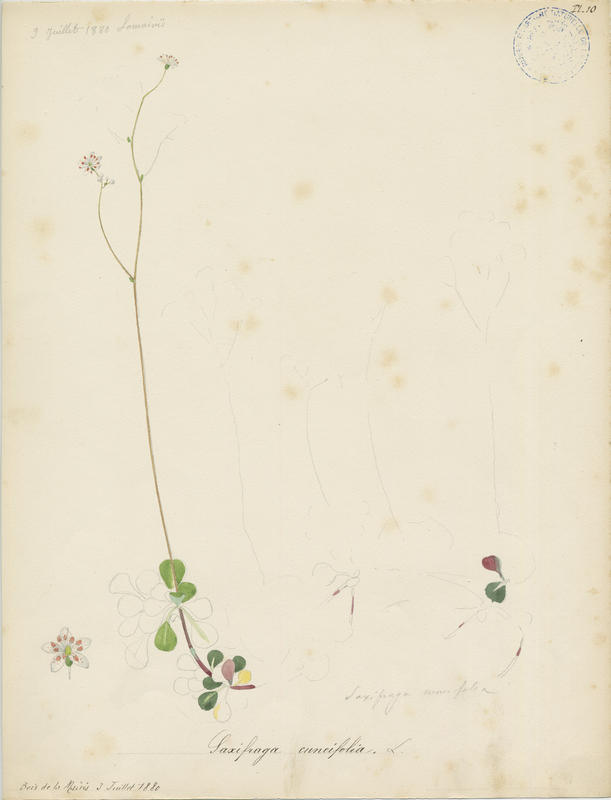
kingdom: Plantae
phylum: Tracheophyta
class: Magnoliopsida
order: Saxifragales
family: Saxifragaceae
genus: Saxifraga
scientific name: Saxifraga cuneifolia
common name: Lesser londonpride
